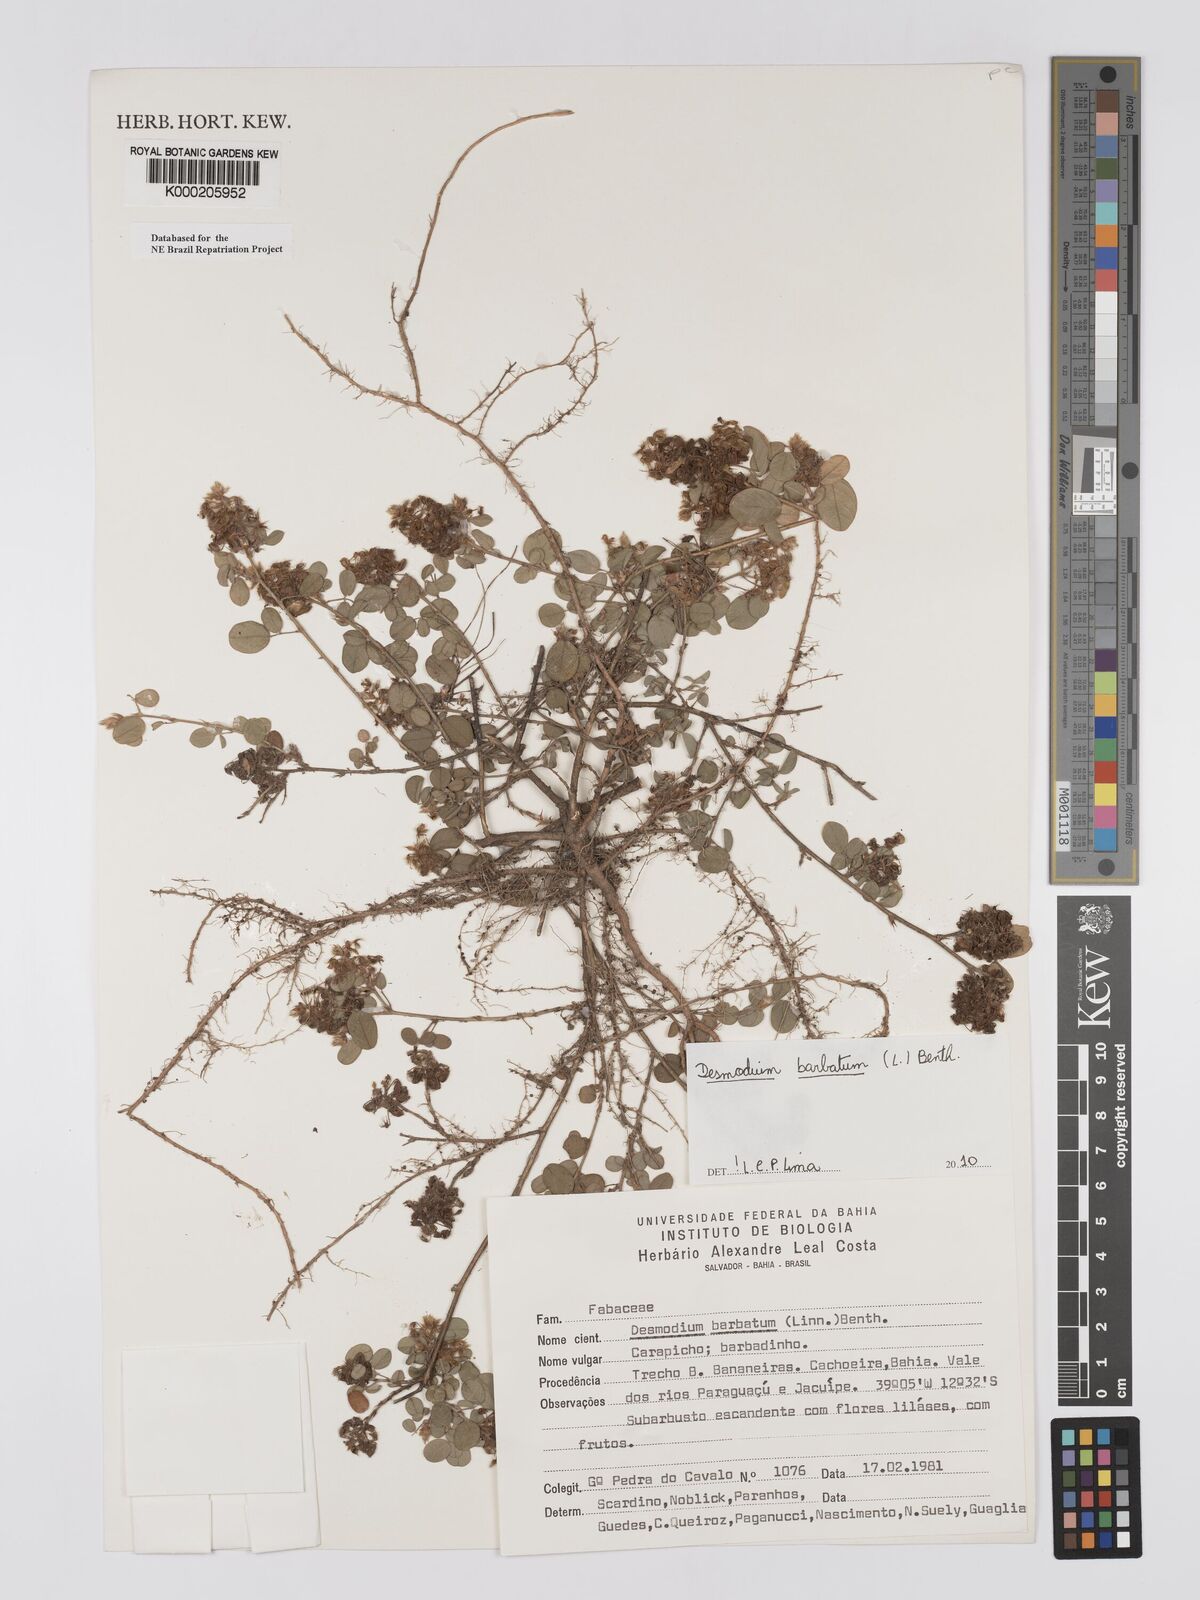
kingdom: Plantae
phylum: Tracheophyta
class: Magnoliopsida
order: Fabales
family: Fabaceae
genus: Grona
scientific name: Grona barbata
